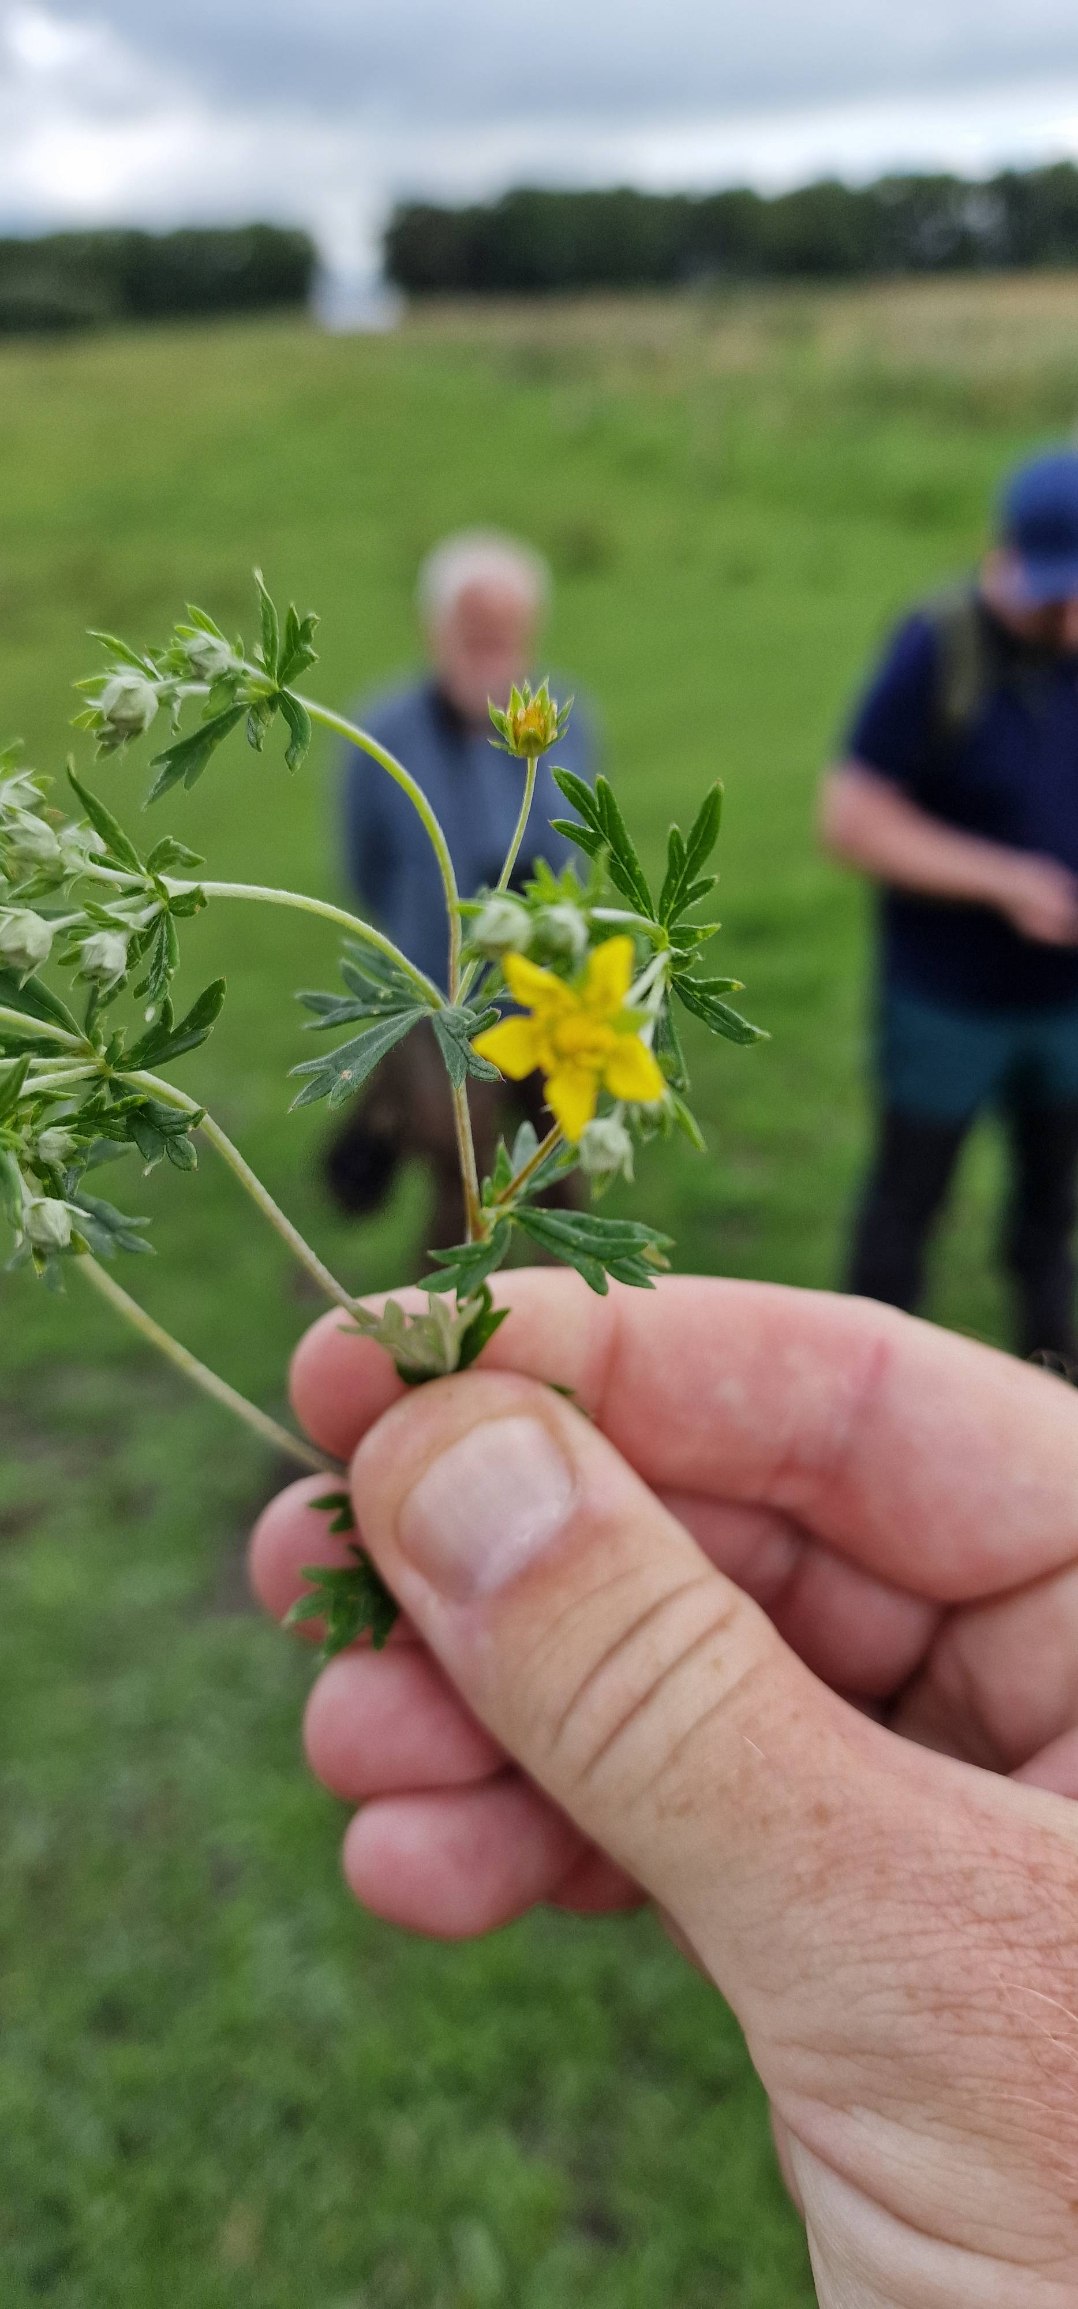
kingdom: Plantae
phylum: Tracheophyta
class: Magnoliopsida
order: Rosales
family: Rosaceae
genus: Potentilla
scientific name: Potentilla argentea
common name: Sølv-potentil
